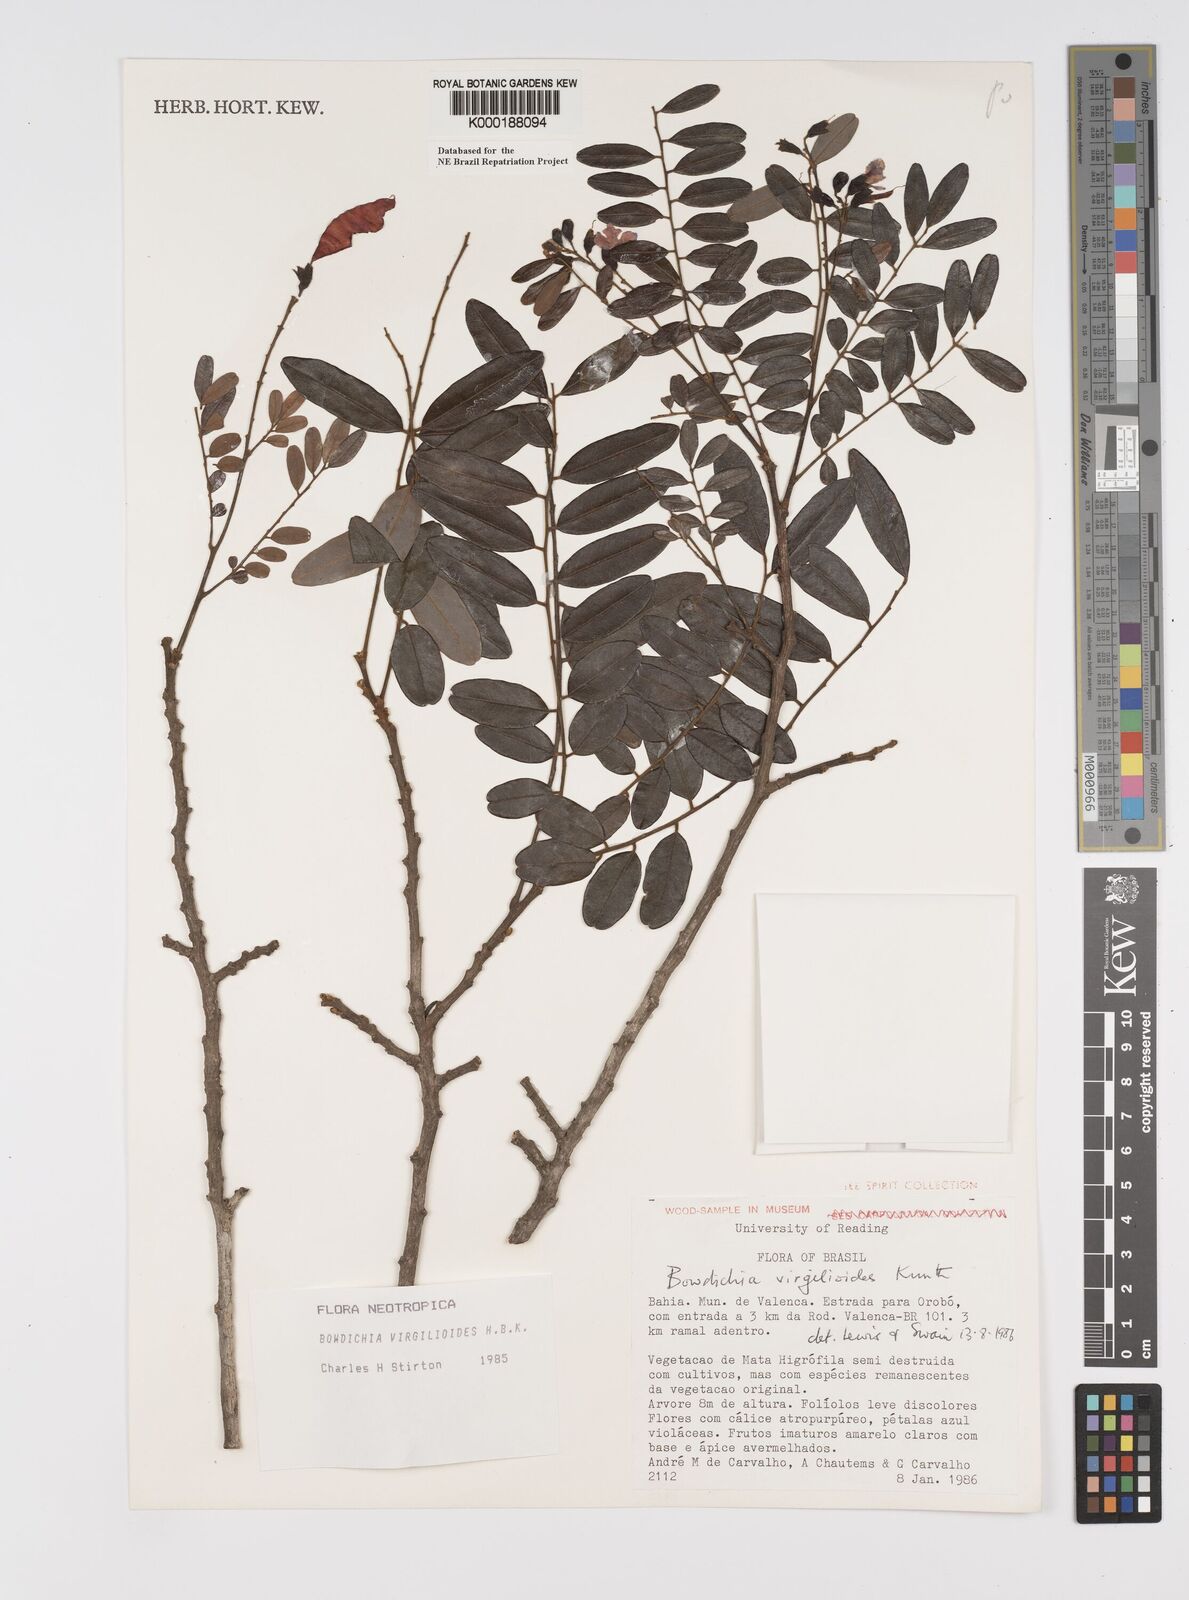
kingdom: Plantae
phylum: Tracheophyta
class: Magnoliopsida
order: Fabales
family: Fabaceae
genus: Bowdichia
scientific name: Bowdichia virgilioides
